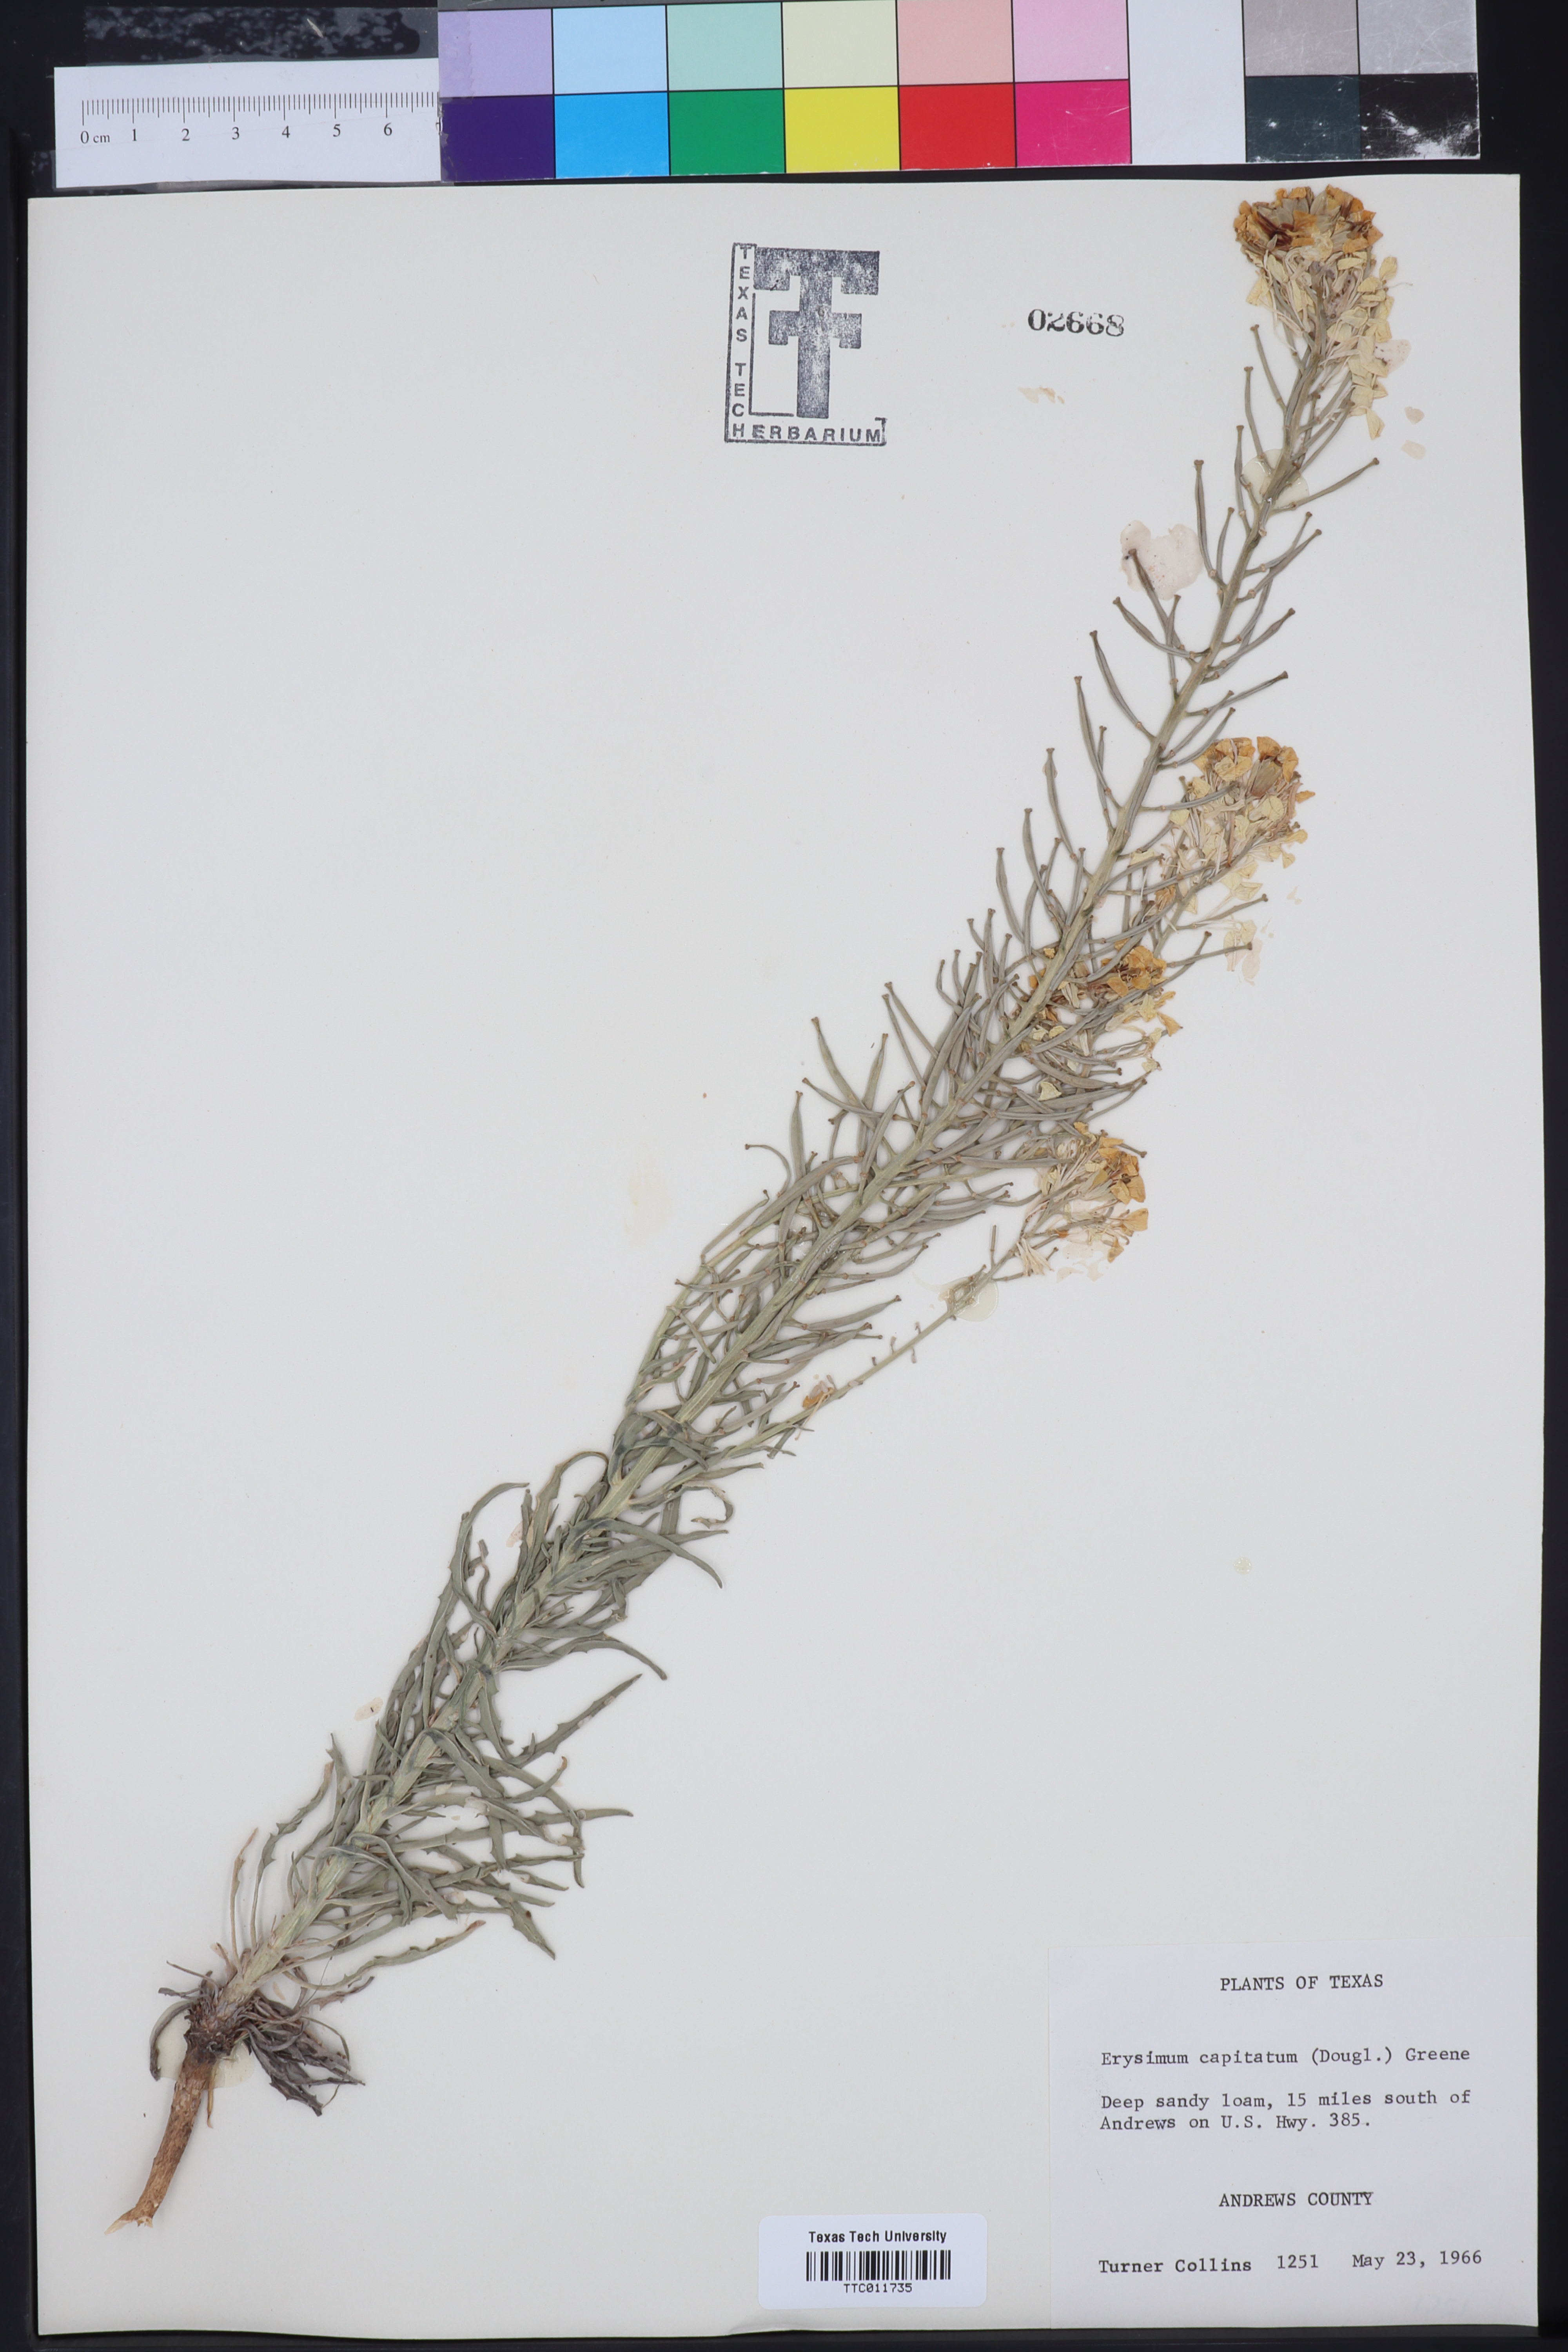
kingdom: Plantae
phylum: Tracheophyta
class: Magnoliopsida
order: Brassicales
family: Brassicaceae
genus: Erysimum
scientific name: Erysimum capitatum
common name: Western wallflower
